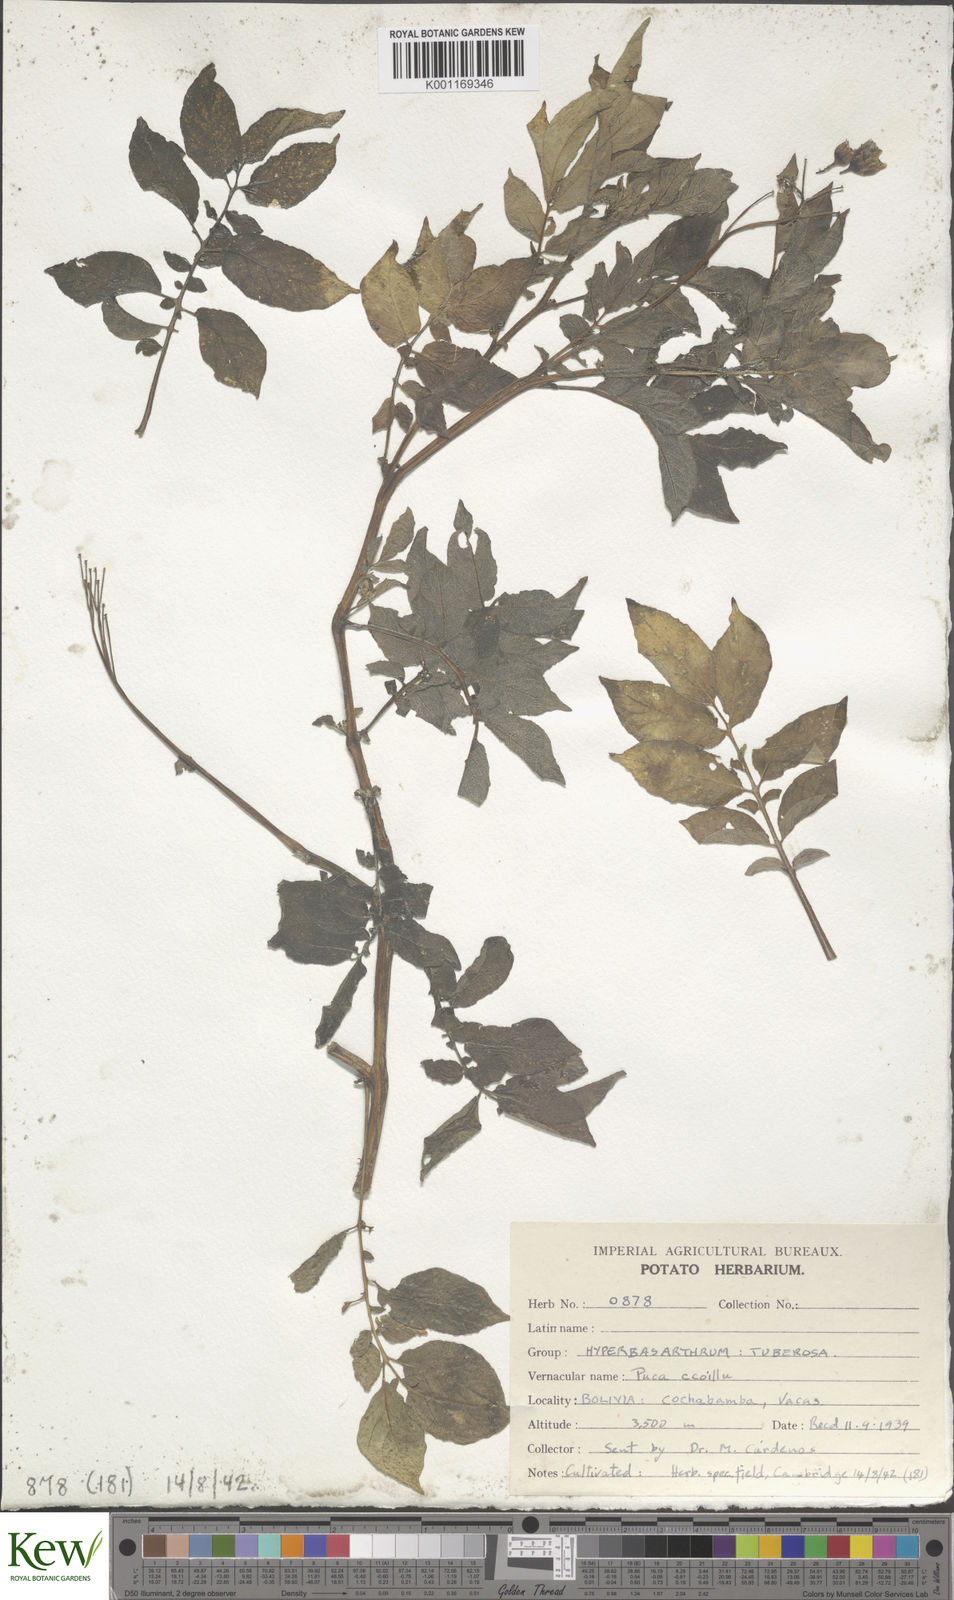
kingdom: Plantae
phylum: Tracheophyta
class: Magnoliopsida
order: Solanales
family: Solanaceae
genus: Solanum
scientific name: Solanum chaucha
